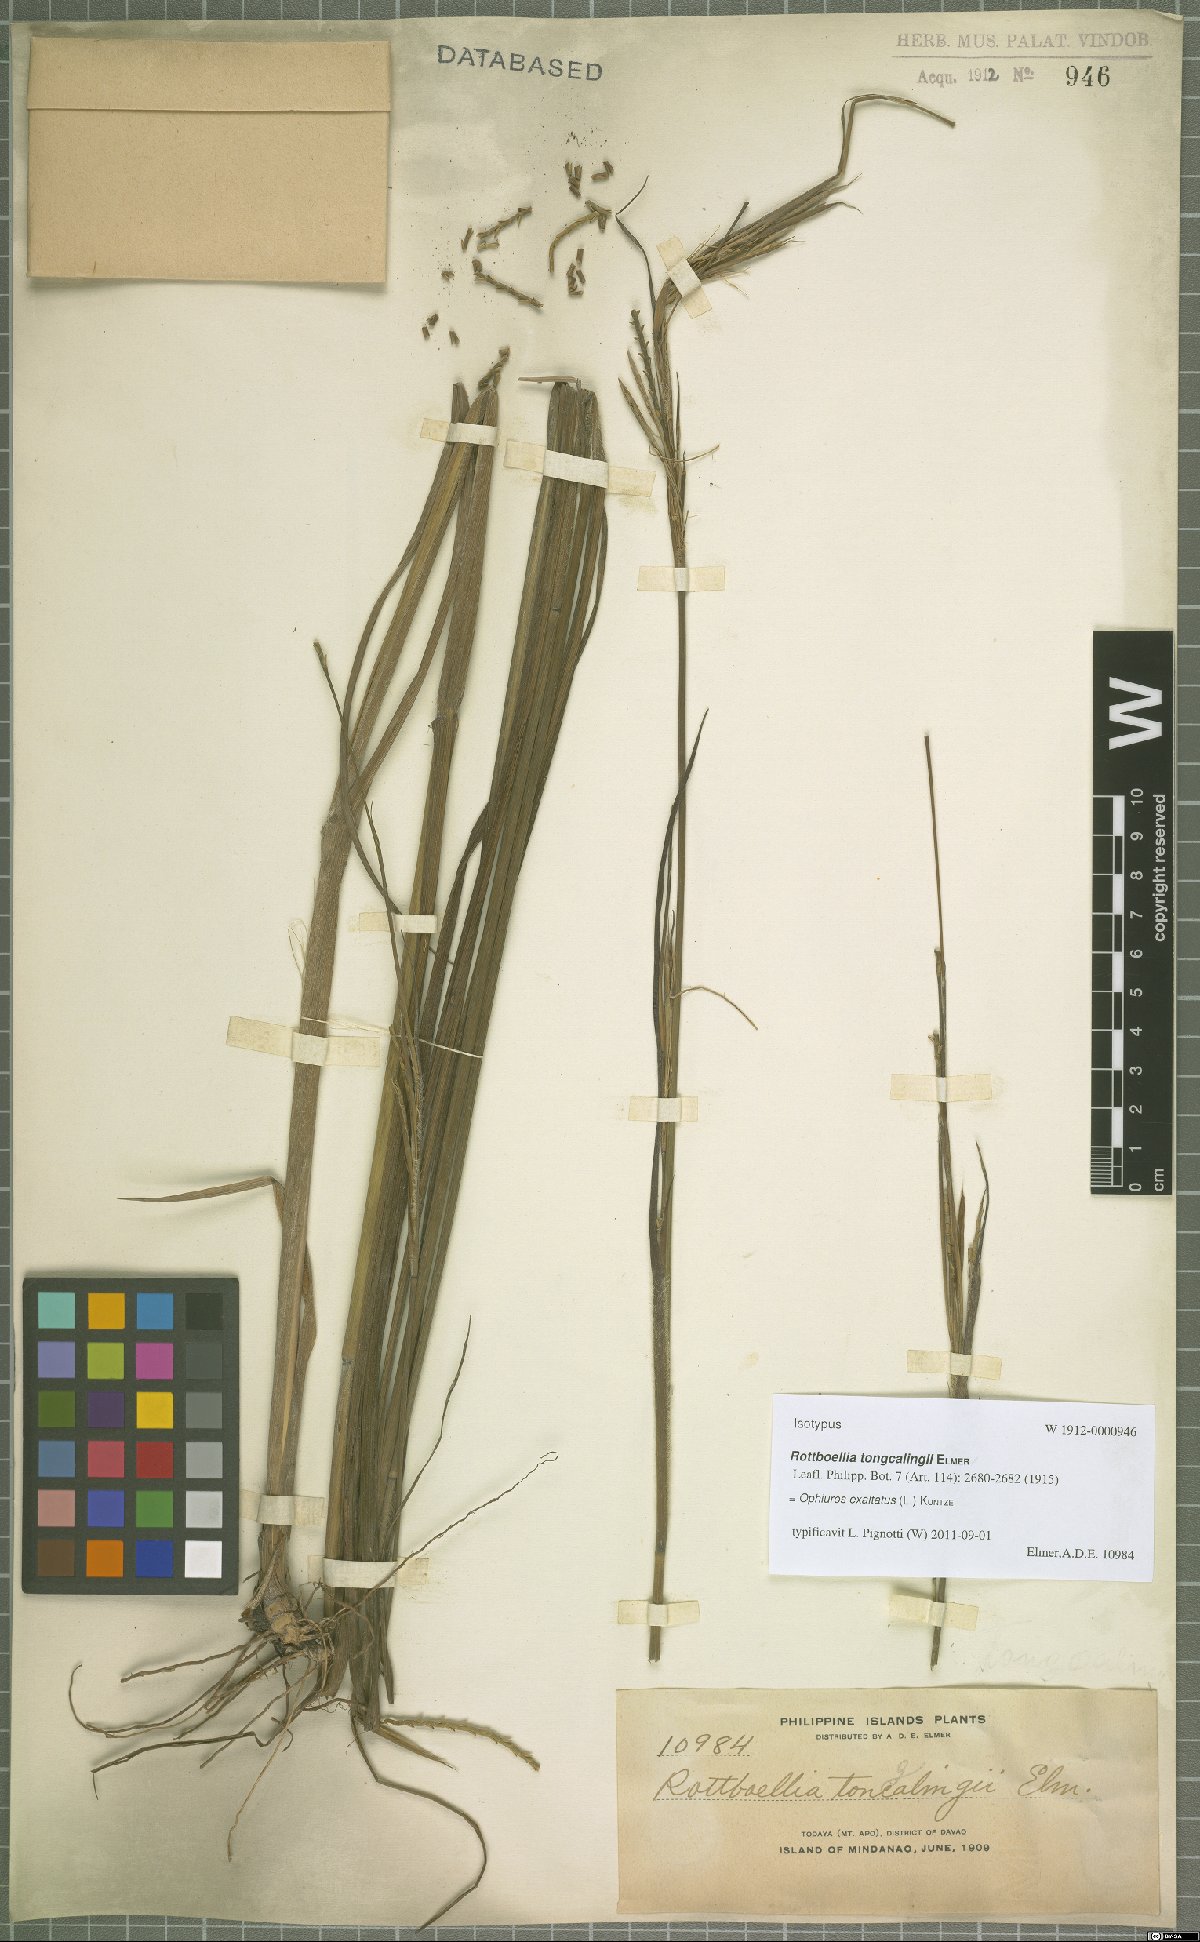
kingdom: Plantae
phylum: Tracheophyta
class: Liliopsida
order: Poales
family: Poaceae
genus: Ophiuros
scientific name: Ophiuros exaltatus
